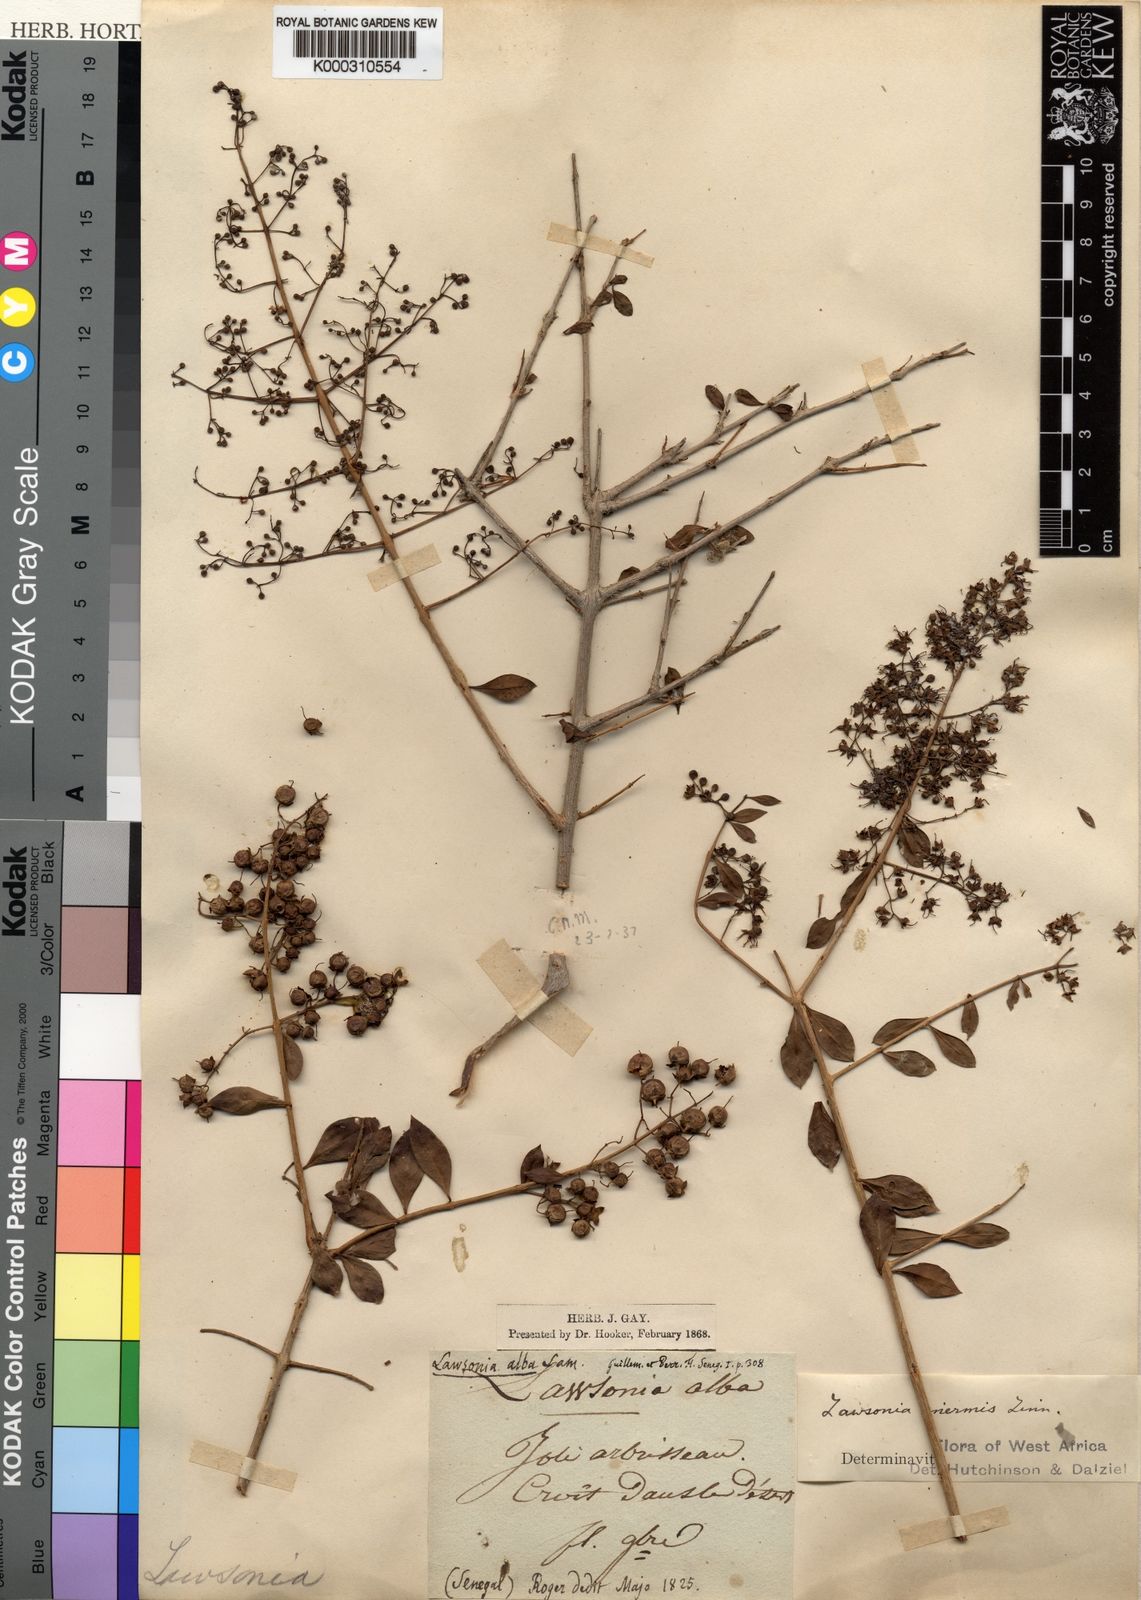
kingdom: Plantae
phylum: Tracheophyta
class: Magnoliopsida
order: Myrtales
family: Lythraceae
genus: Lawsonia
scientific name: Lawsonia inermis
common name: Henna
